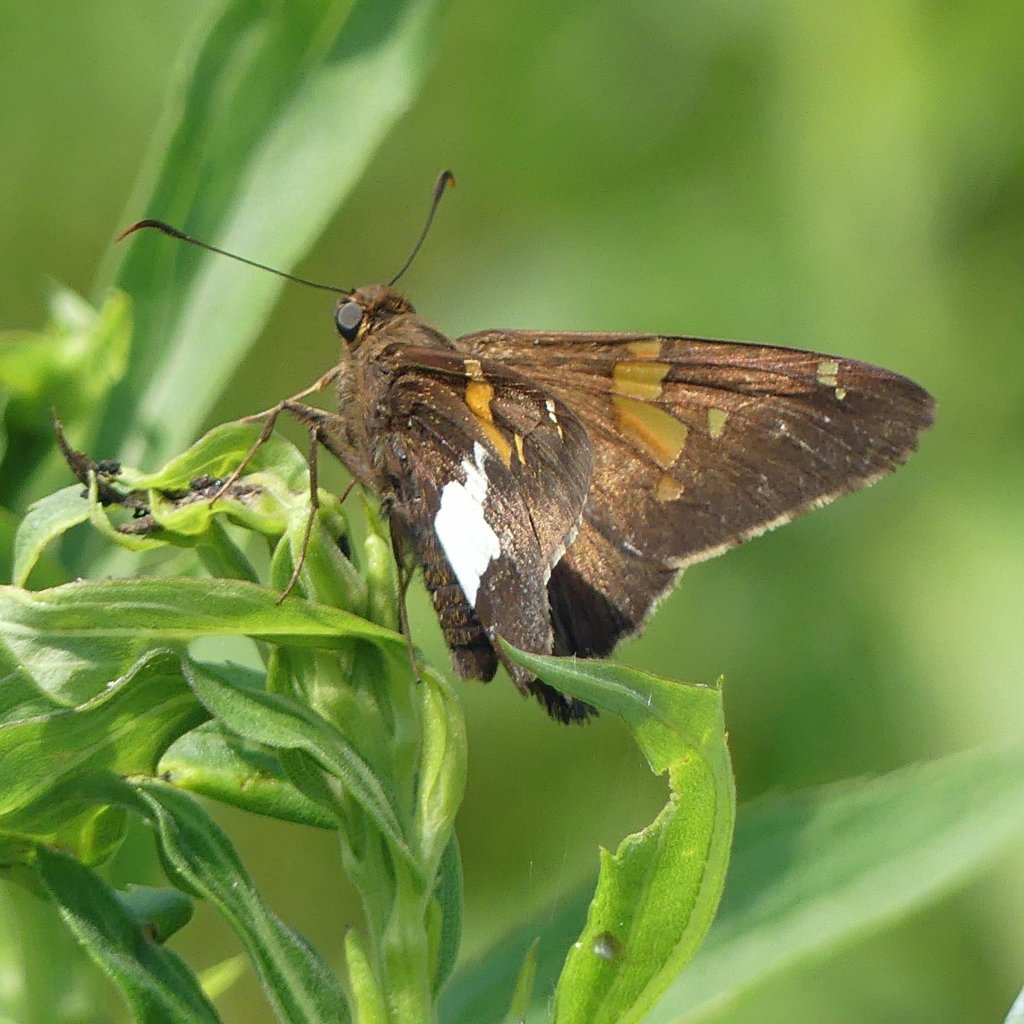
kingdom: Animalia
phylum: Arthropoda
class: Insecta
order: Lepidoptera
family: Hesperiidae
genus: Epargyreus
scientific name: Epargyreus clarus
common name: Silver-spotted Skipper
